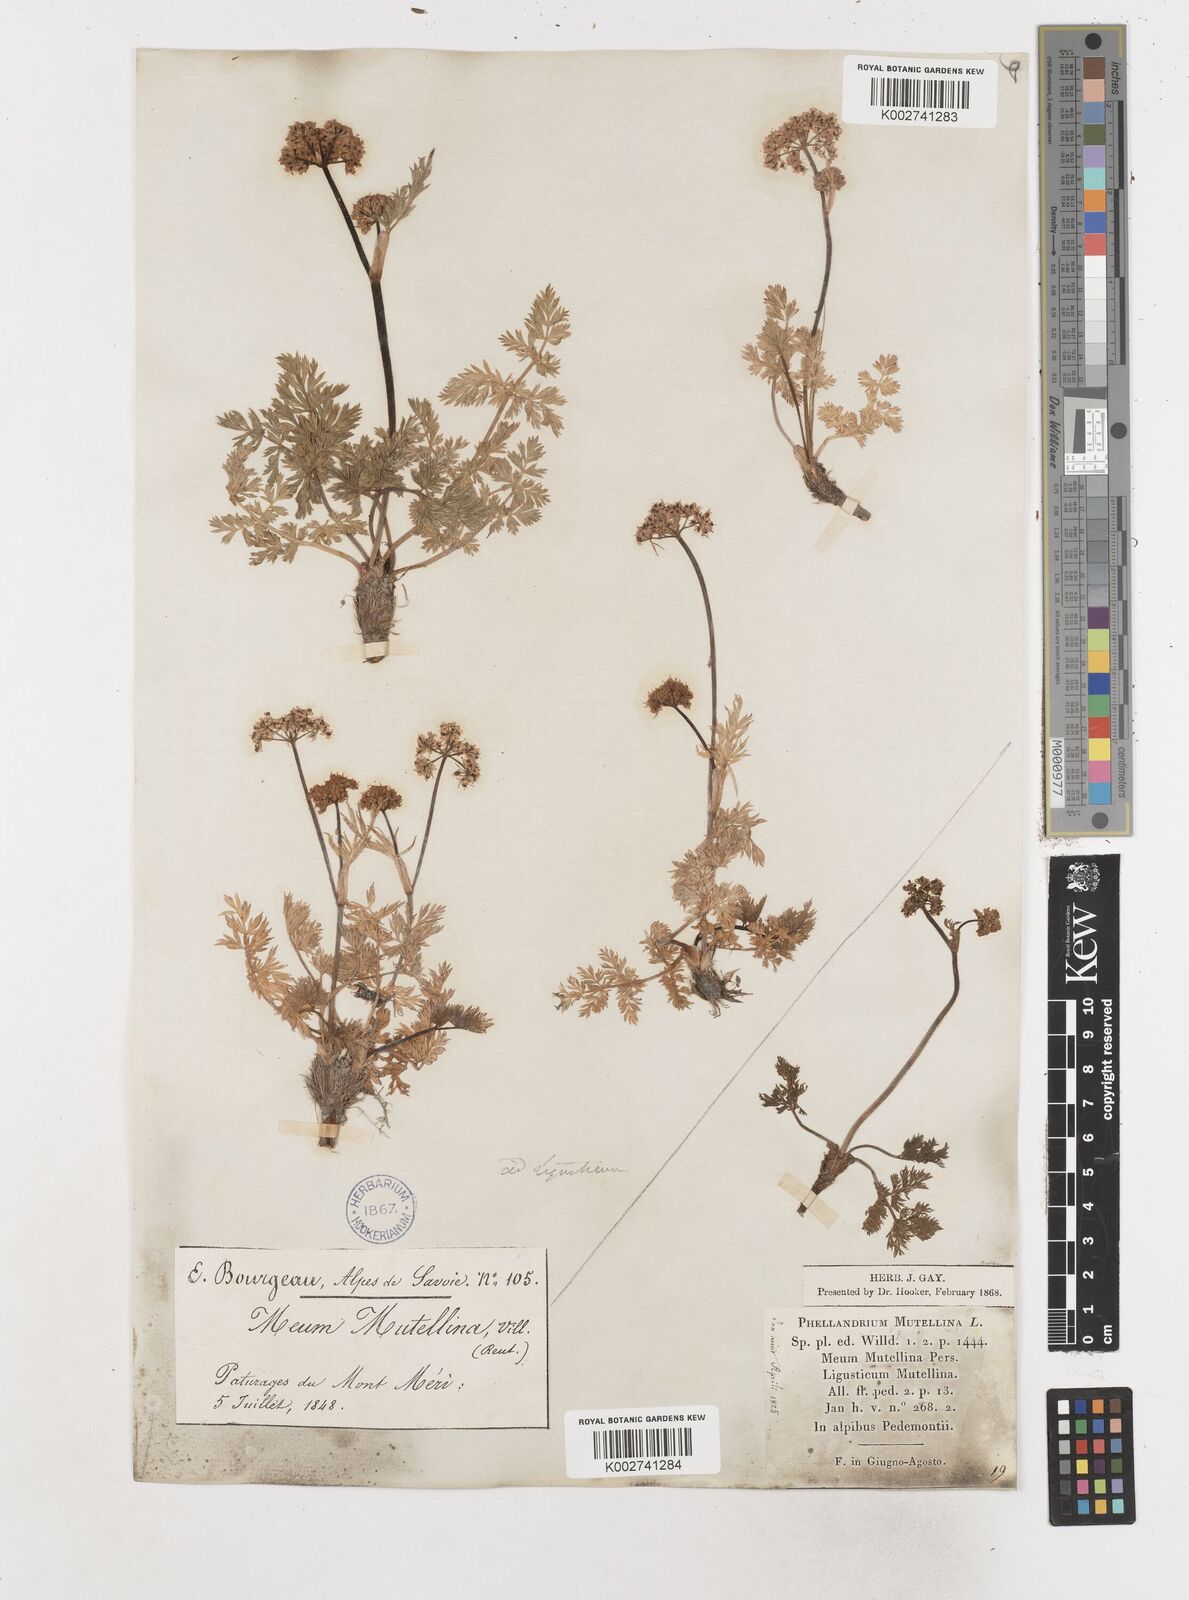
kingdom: Plantae
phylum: Tracheophyta
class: Magnoliopsida
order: Apiales
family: Apiaceae
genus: Mutellina
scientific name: Mutellina adonidifolia
